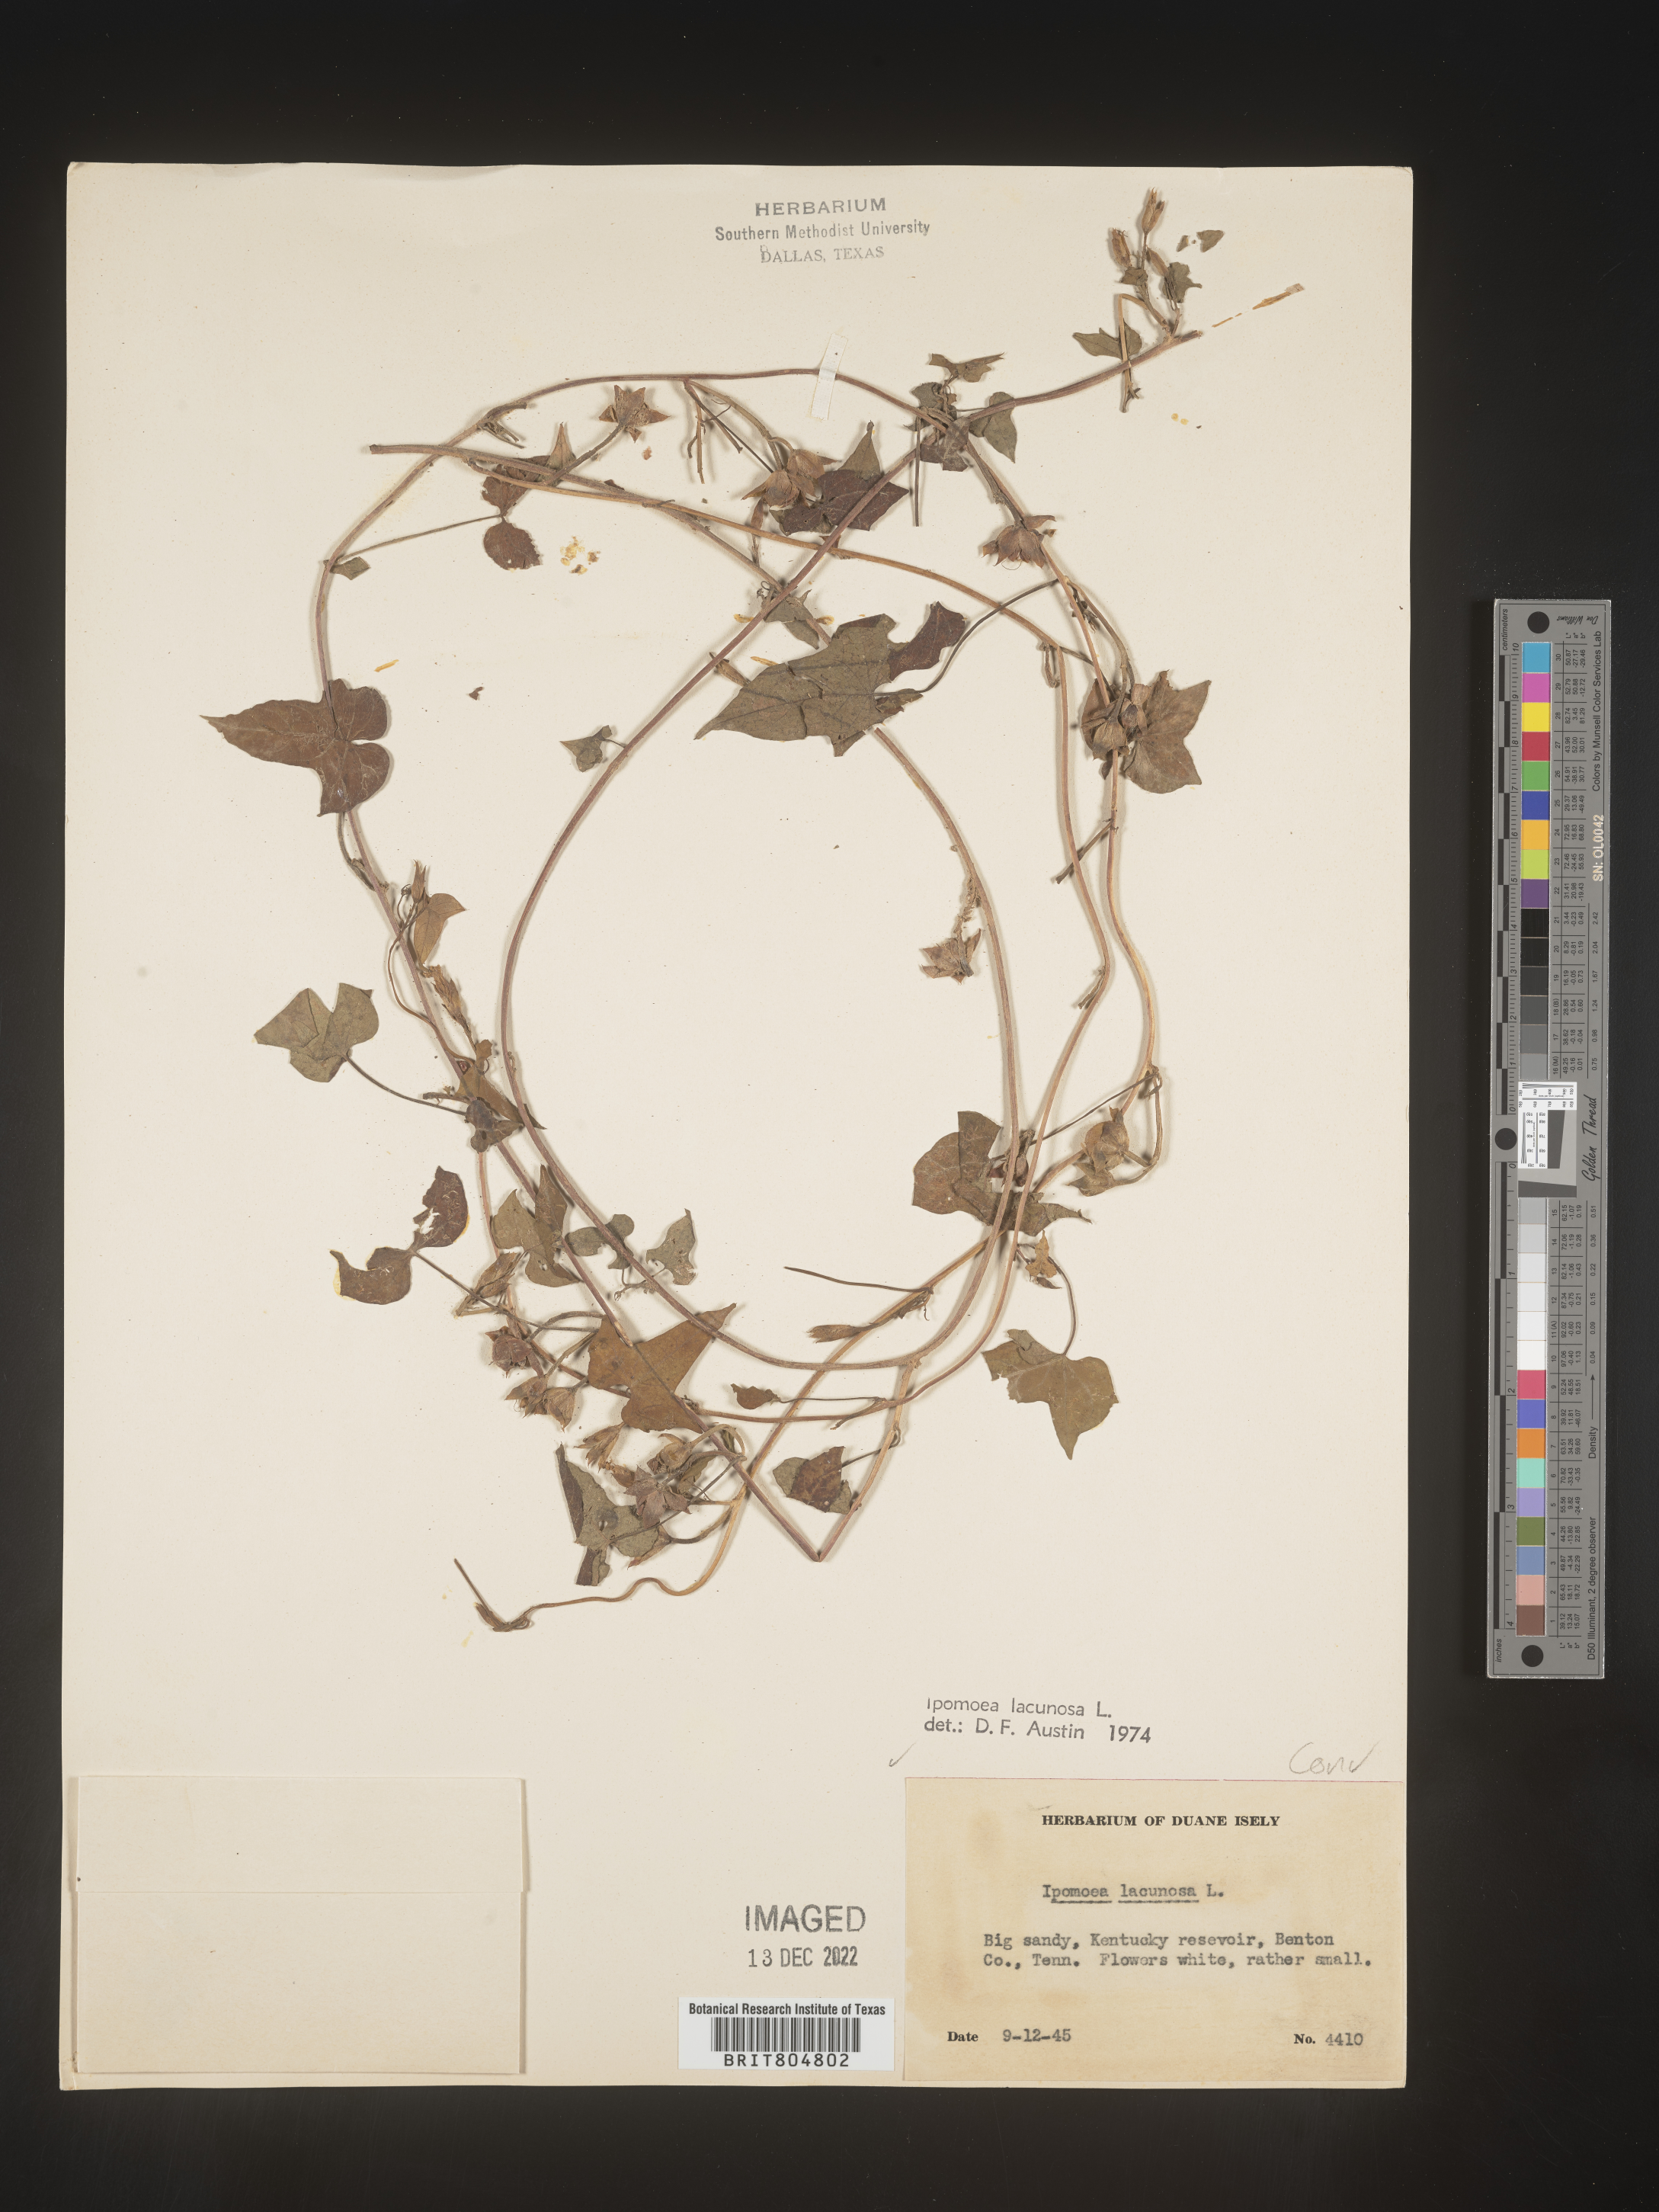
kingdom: Plantae
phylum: Tracheophyta
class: Magnoliopsida
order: Solanales
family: Convolvulaceae
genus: Ipomoea
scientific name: Ipomoea lacunosa
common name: White morning-glory
